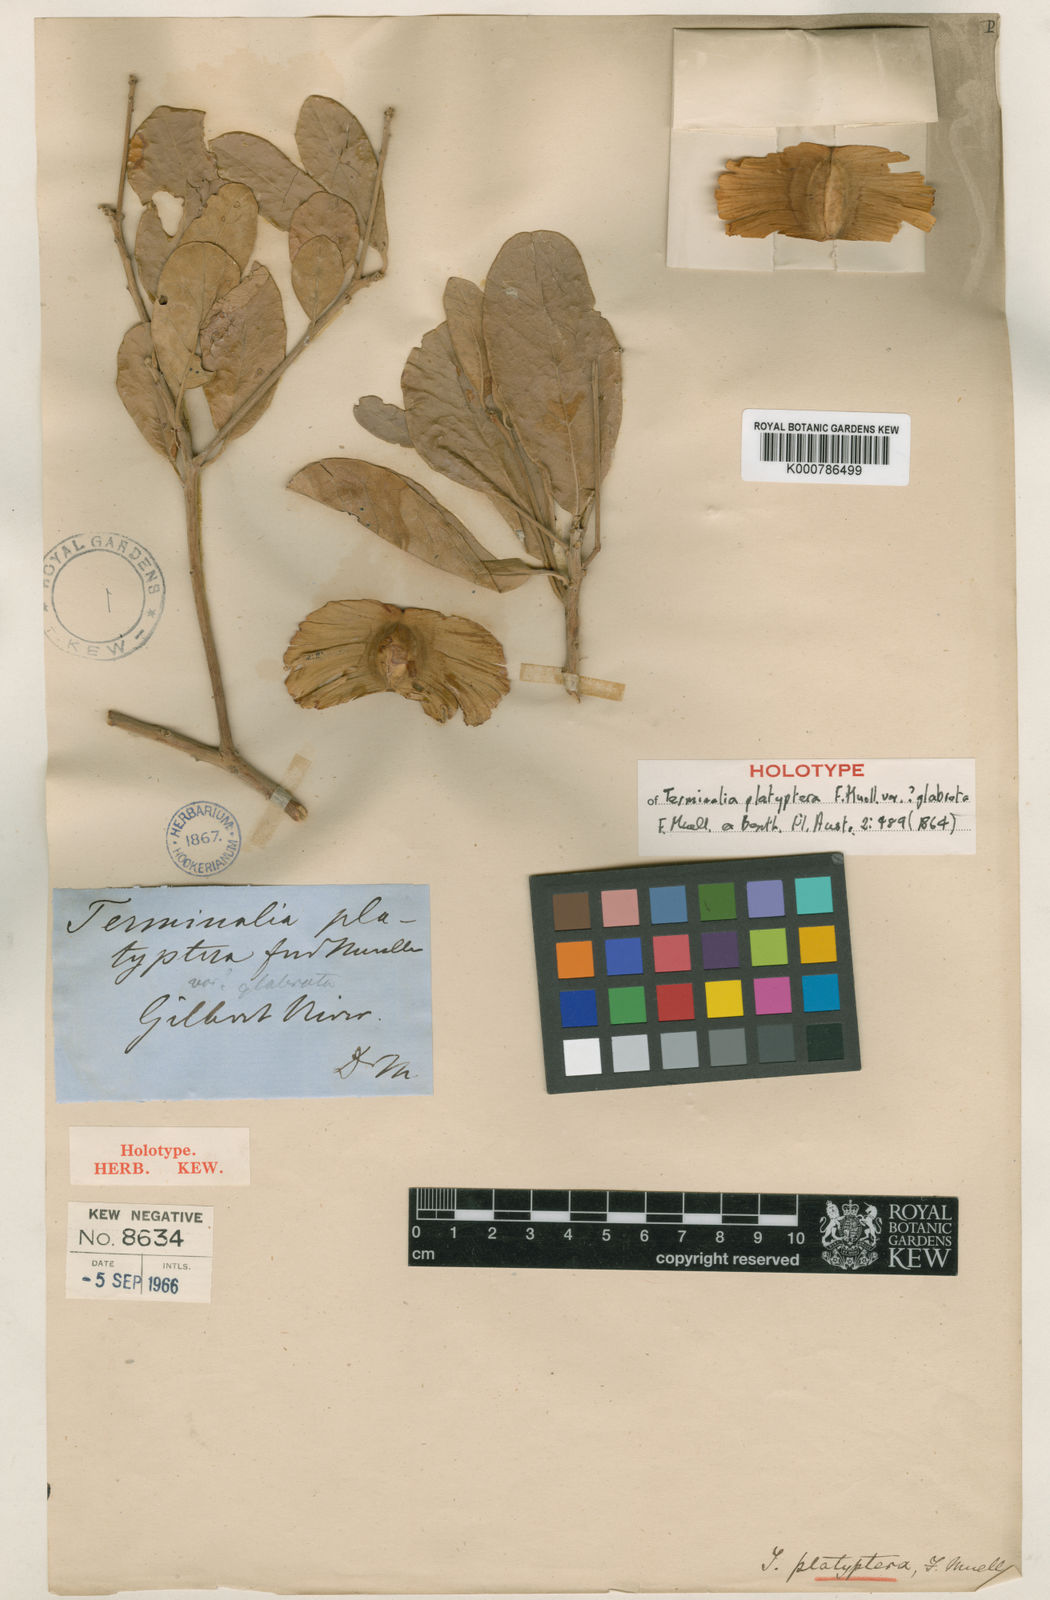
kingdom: Plantae
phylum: Tracheophyta
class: Magnoliopsida
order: Myrtales
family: Combretaceae
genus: Terminalia
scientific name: Terminalia platyptera
